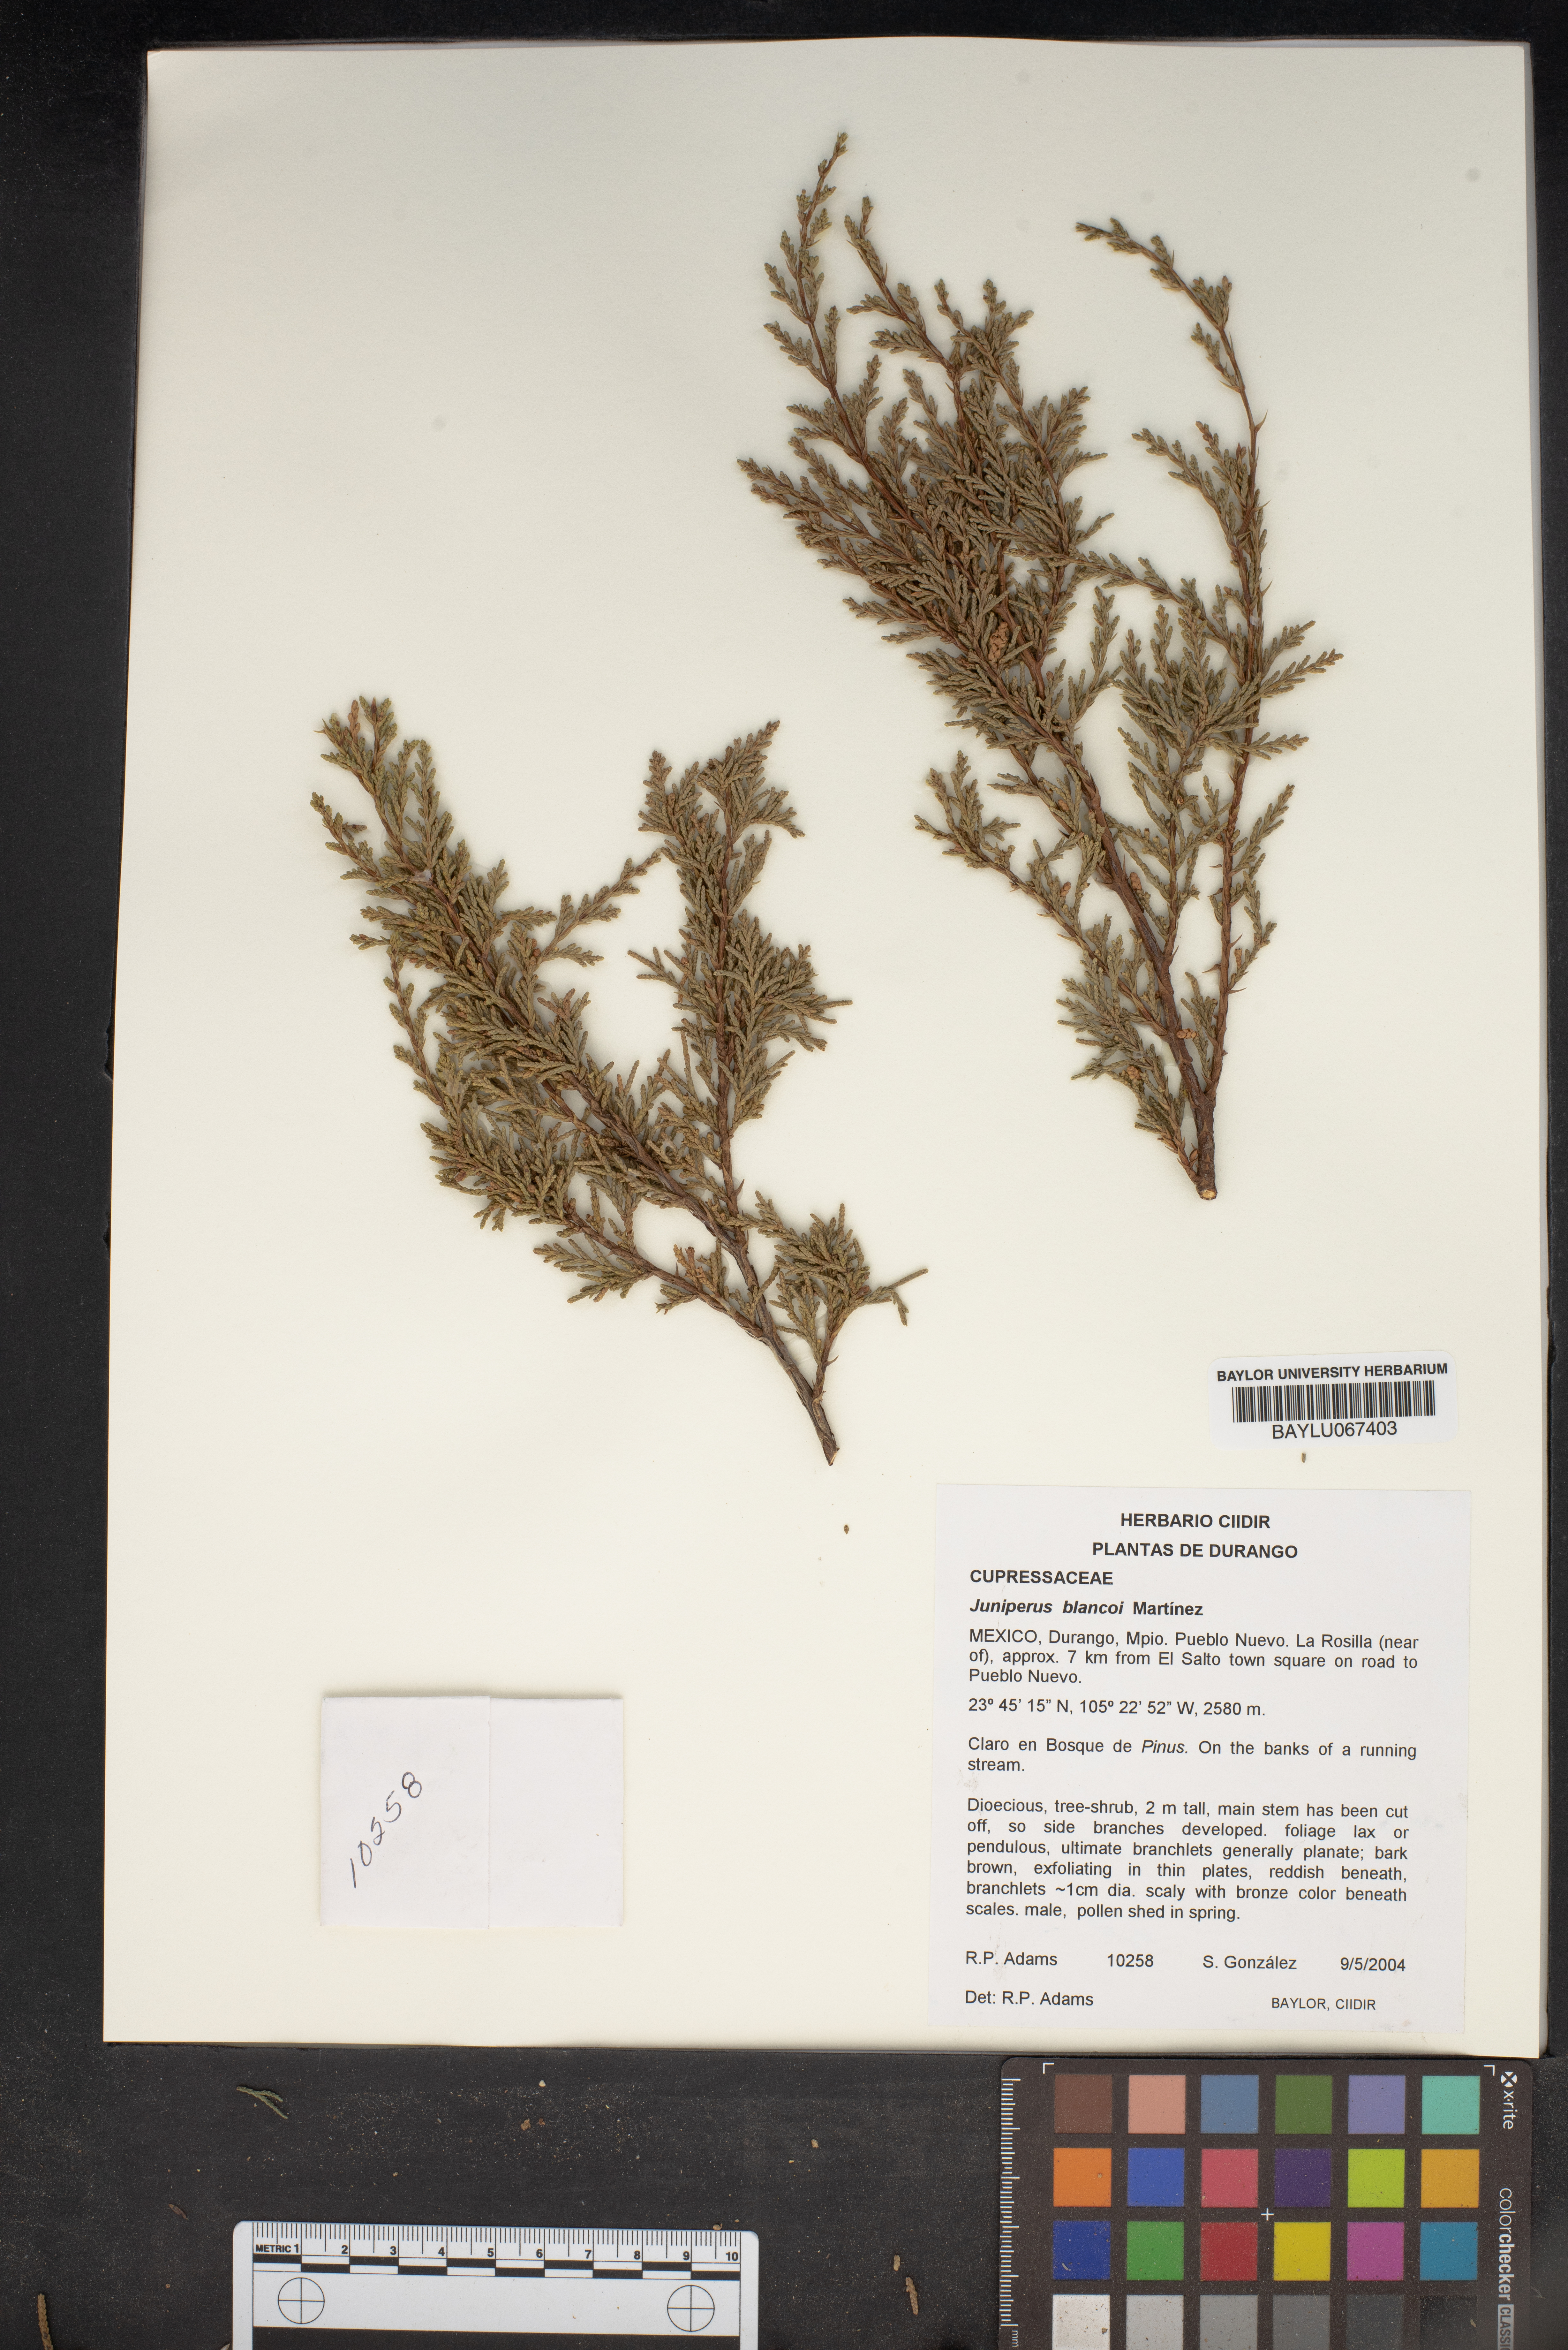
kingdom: Plantae
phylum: Tracheophyta
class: Pinopsida
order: Pinales
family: Cupressaceae
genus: Juniperus
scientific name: Juniperus blancoi
